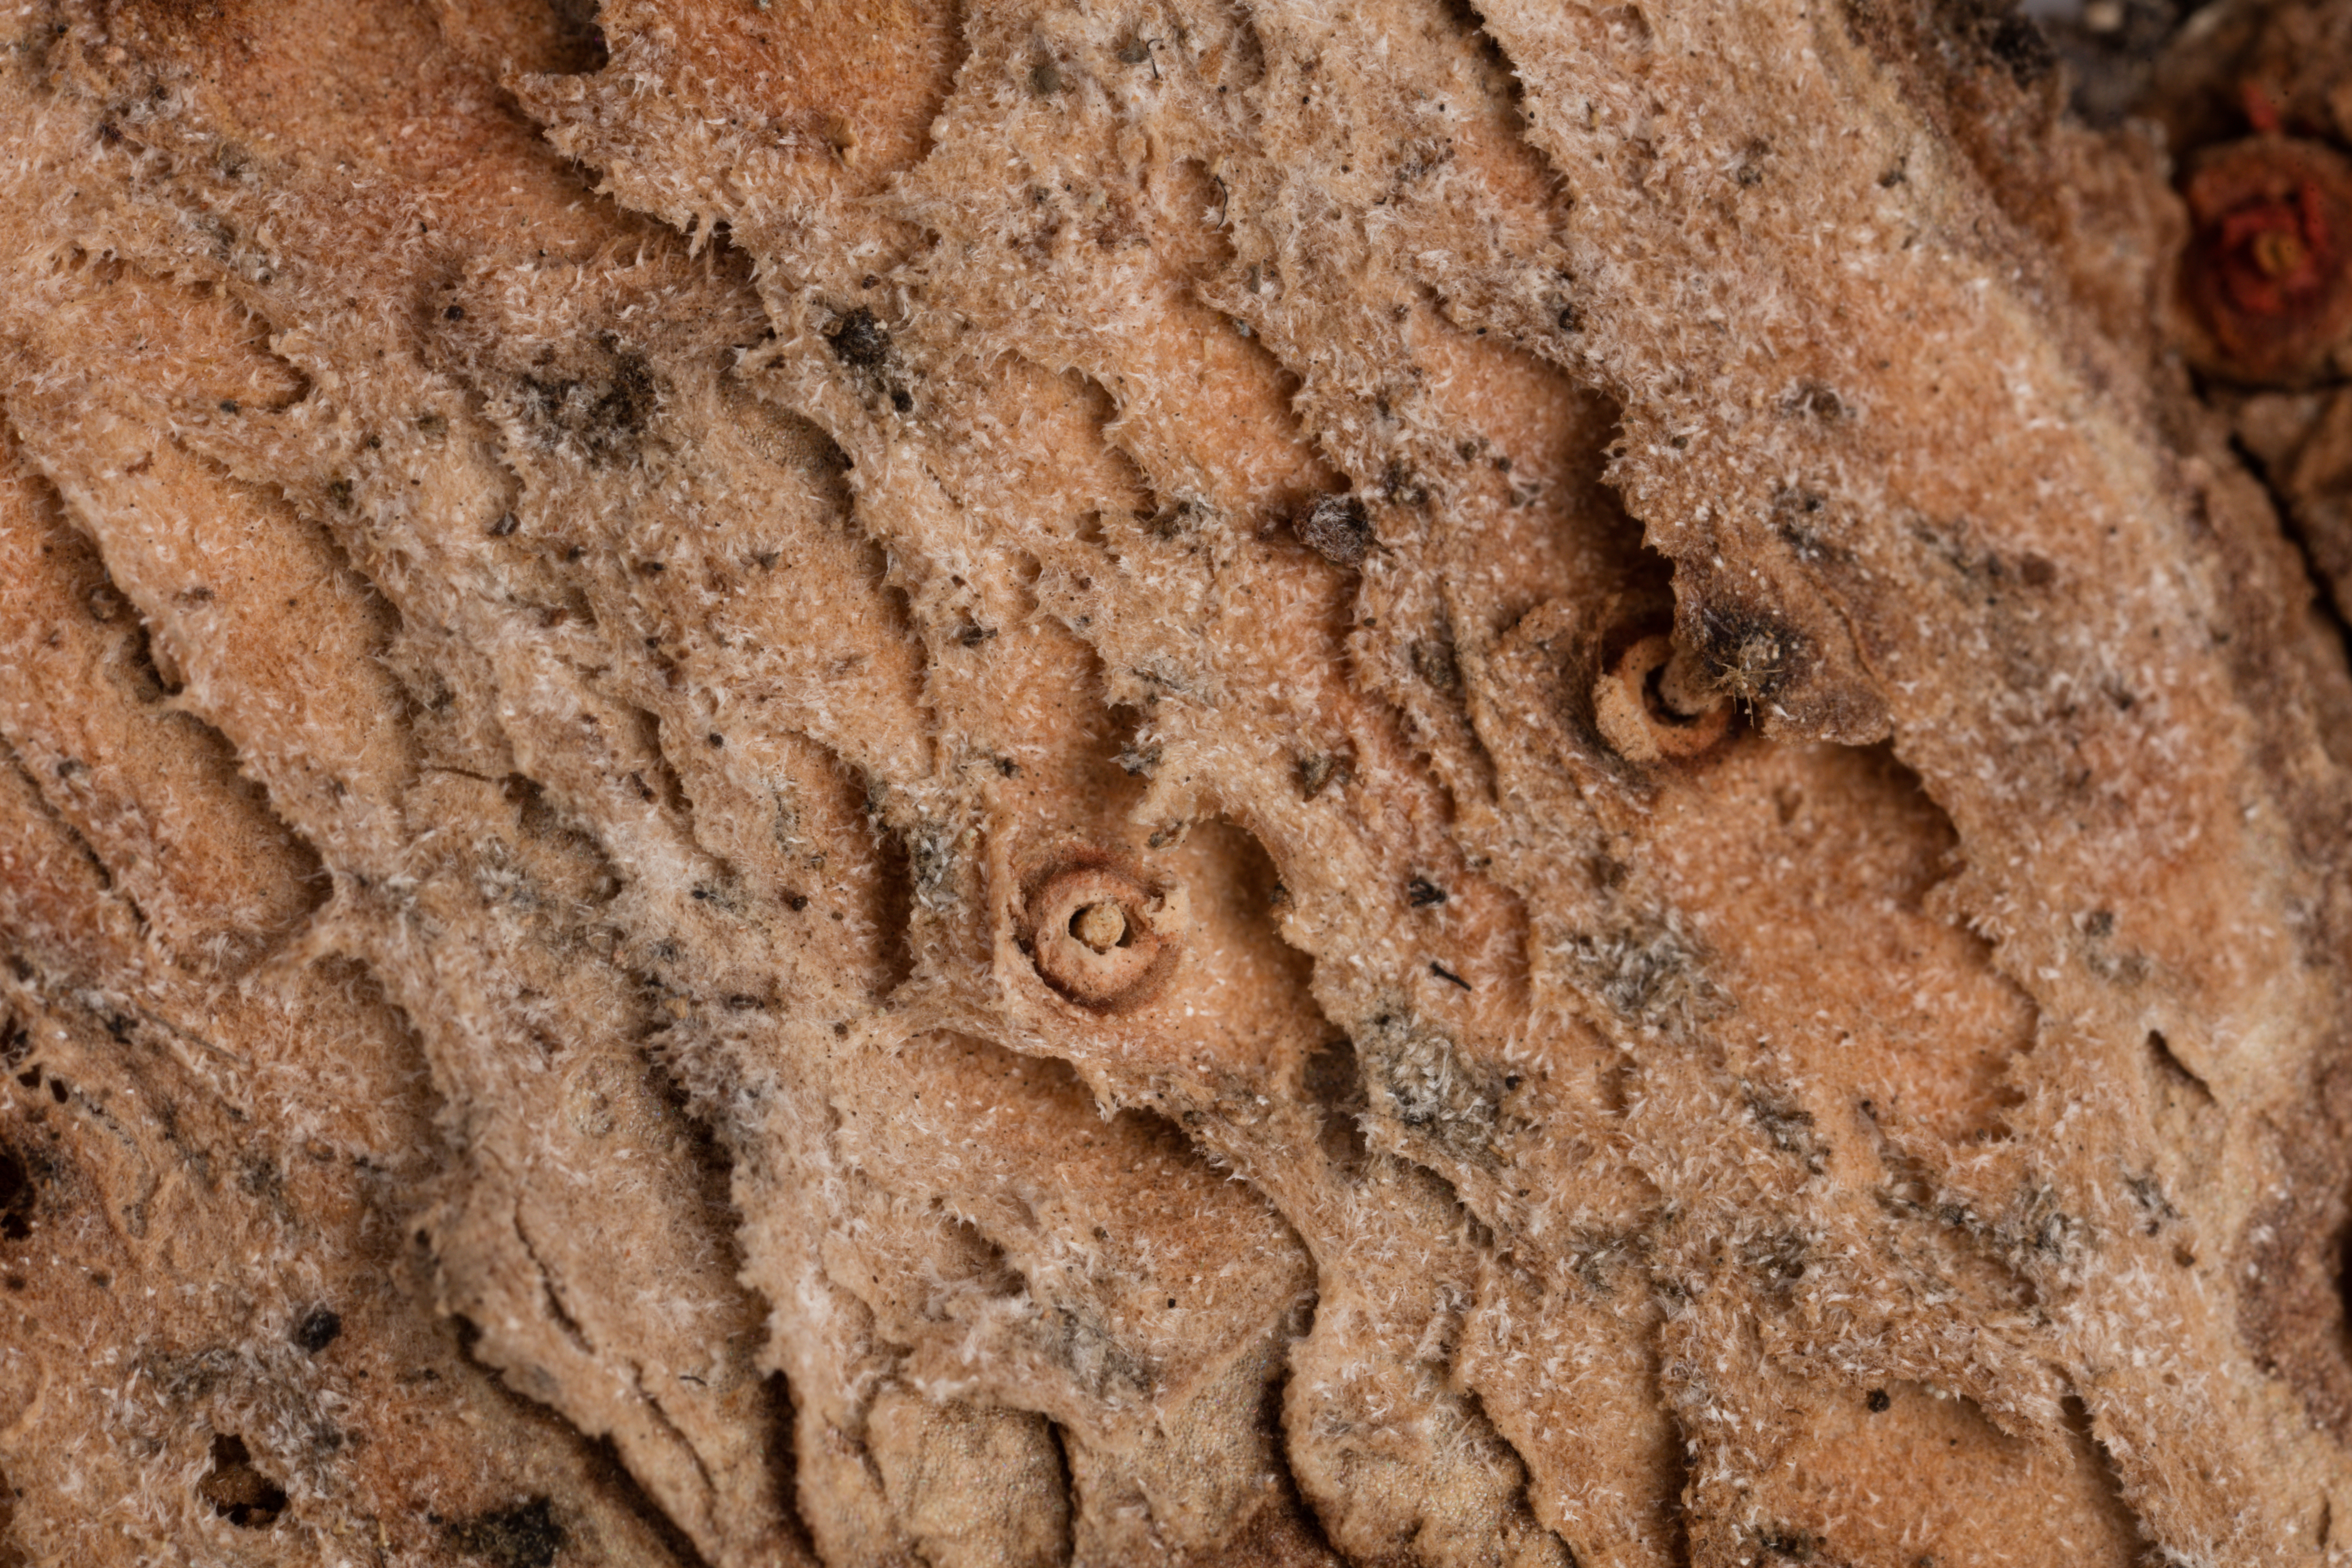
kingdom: Fungi
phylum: Ascomycota
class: Lecanoromycetes
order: Peltigerales
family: Lobariaceae
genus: Pseudocyphellaria
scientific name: Pseudocyphellaria bartlettii
